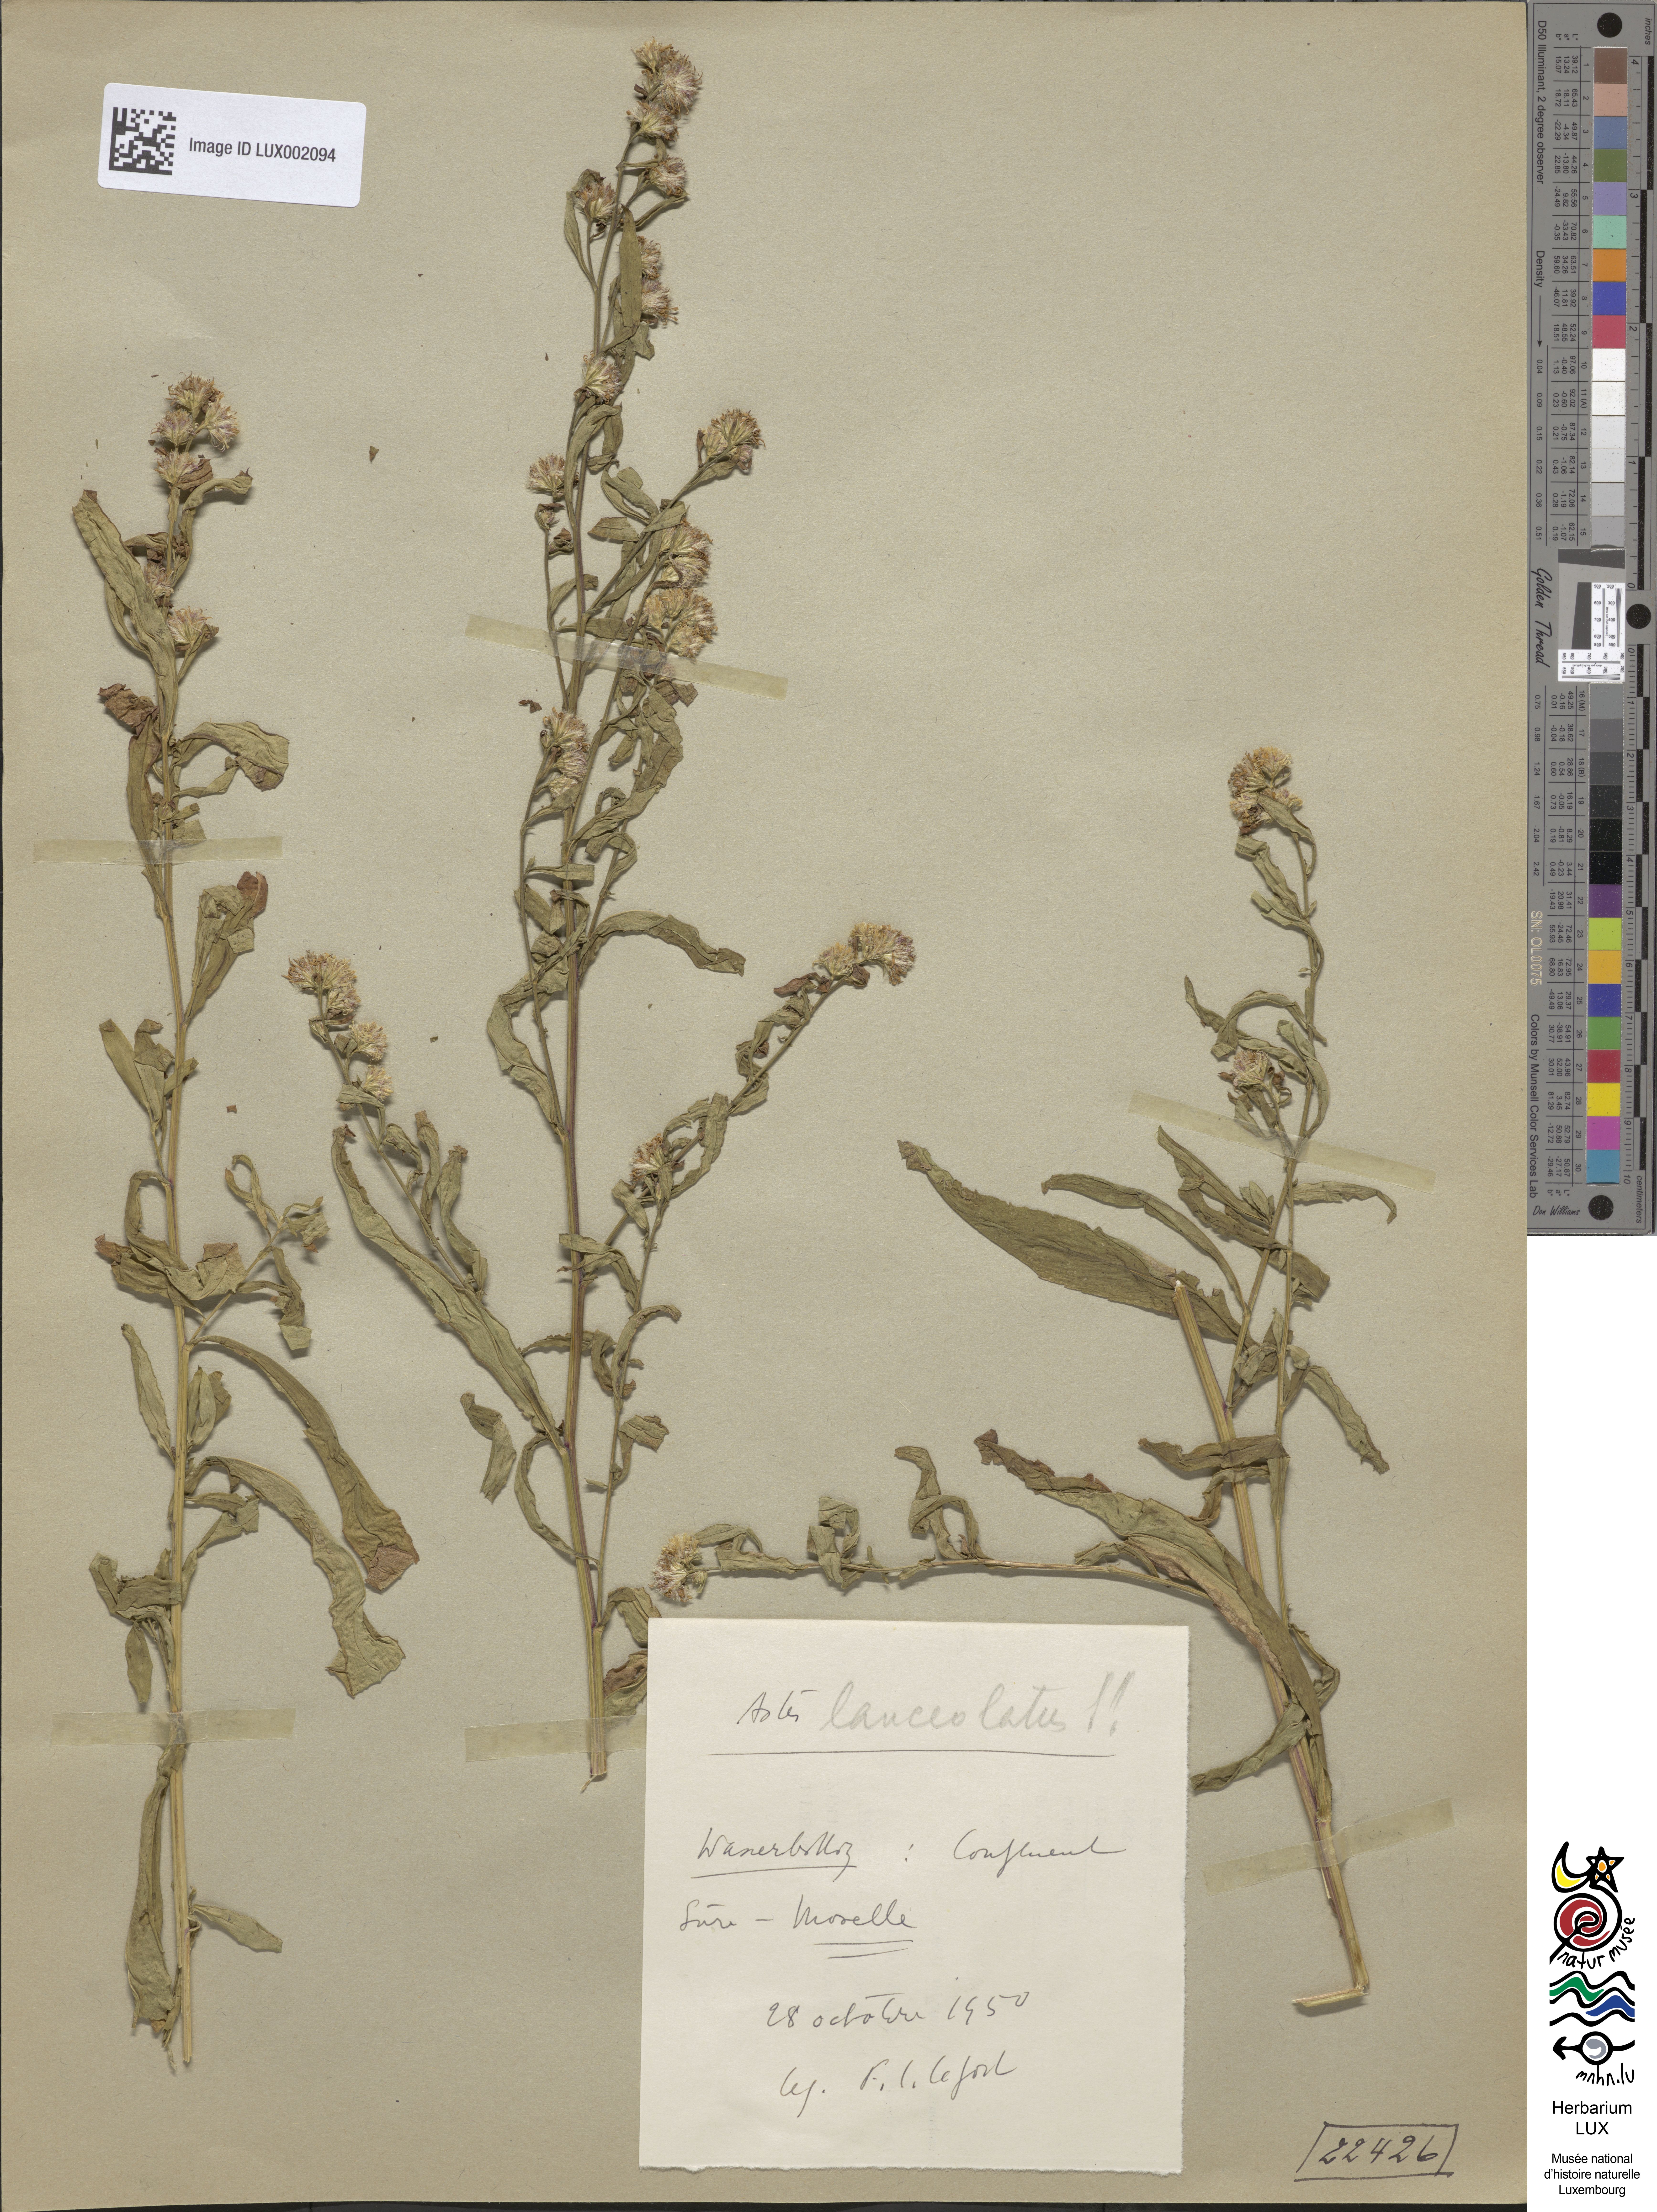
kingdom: Plantae
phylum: Tracheophyta
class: Magnoliopsida
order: Asterales
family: Asteraceae
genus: Symphyotrichum
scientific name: Symphyotrichum lanceolatum
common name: Panicled aster
